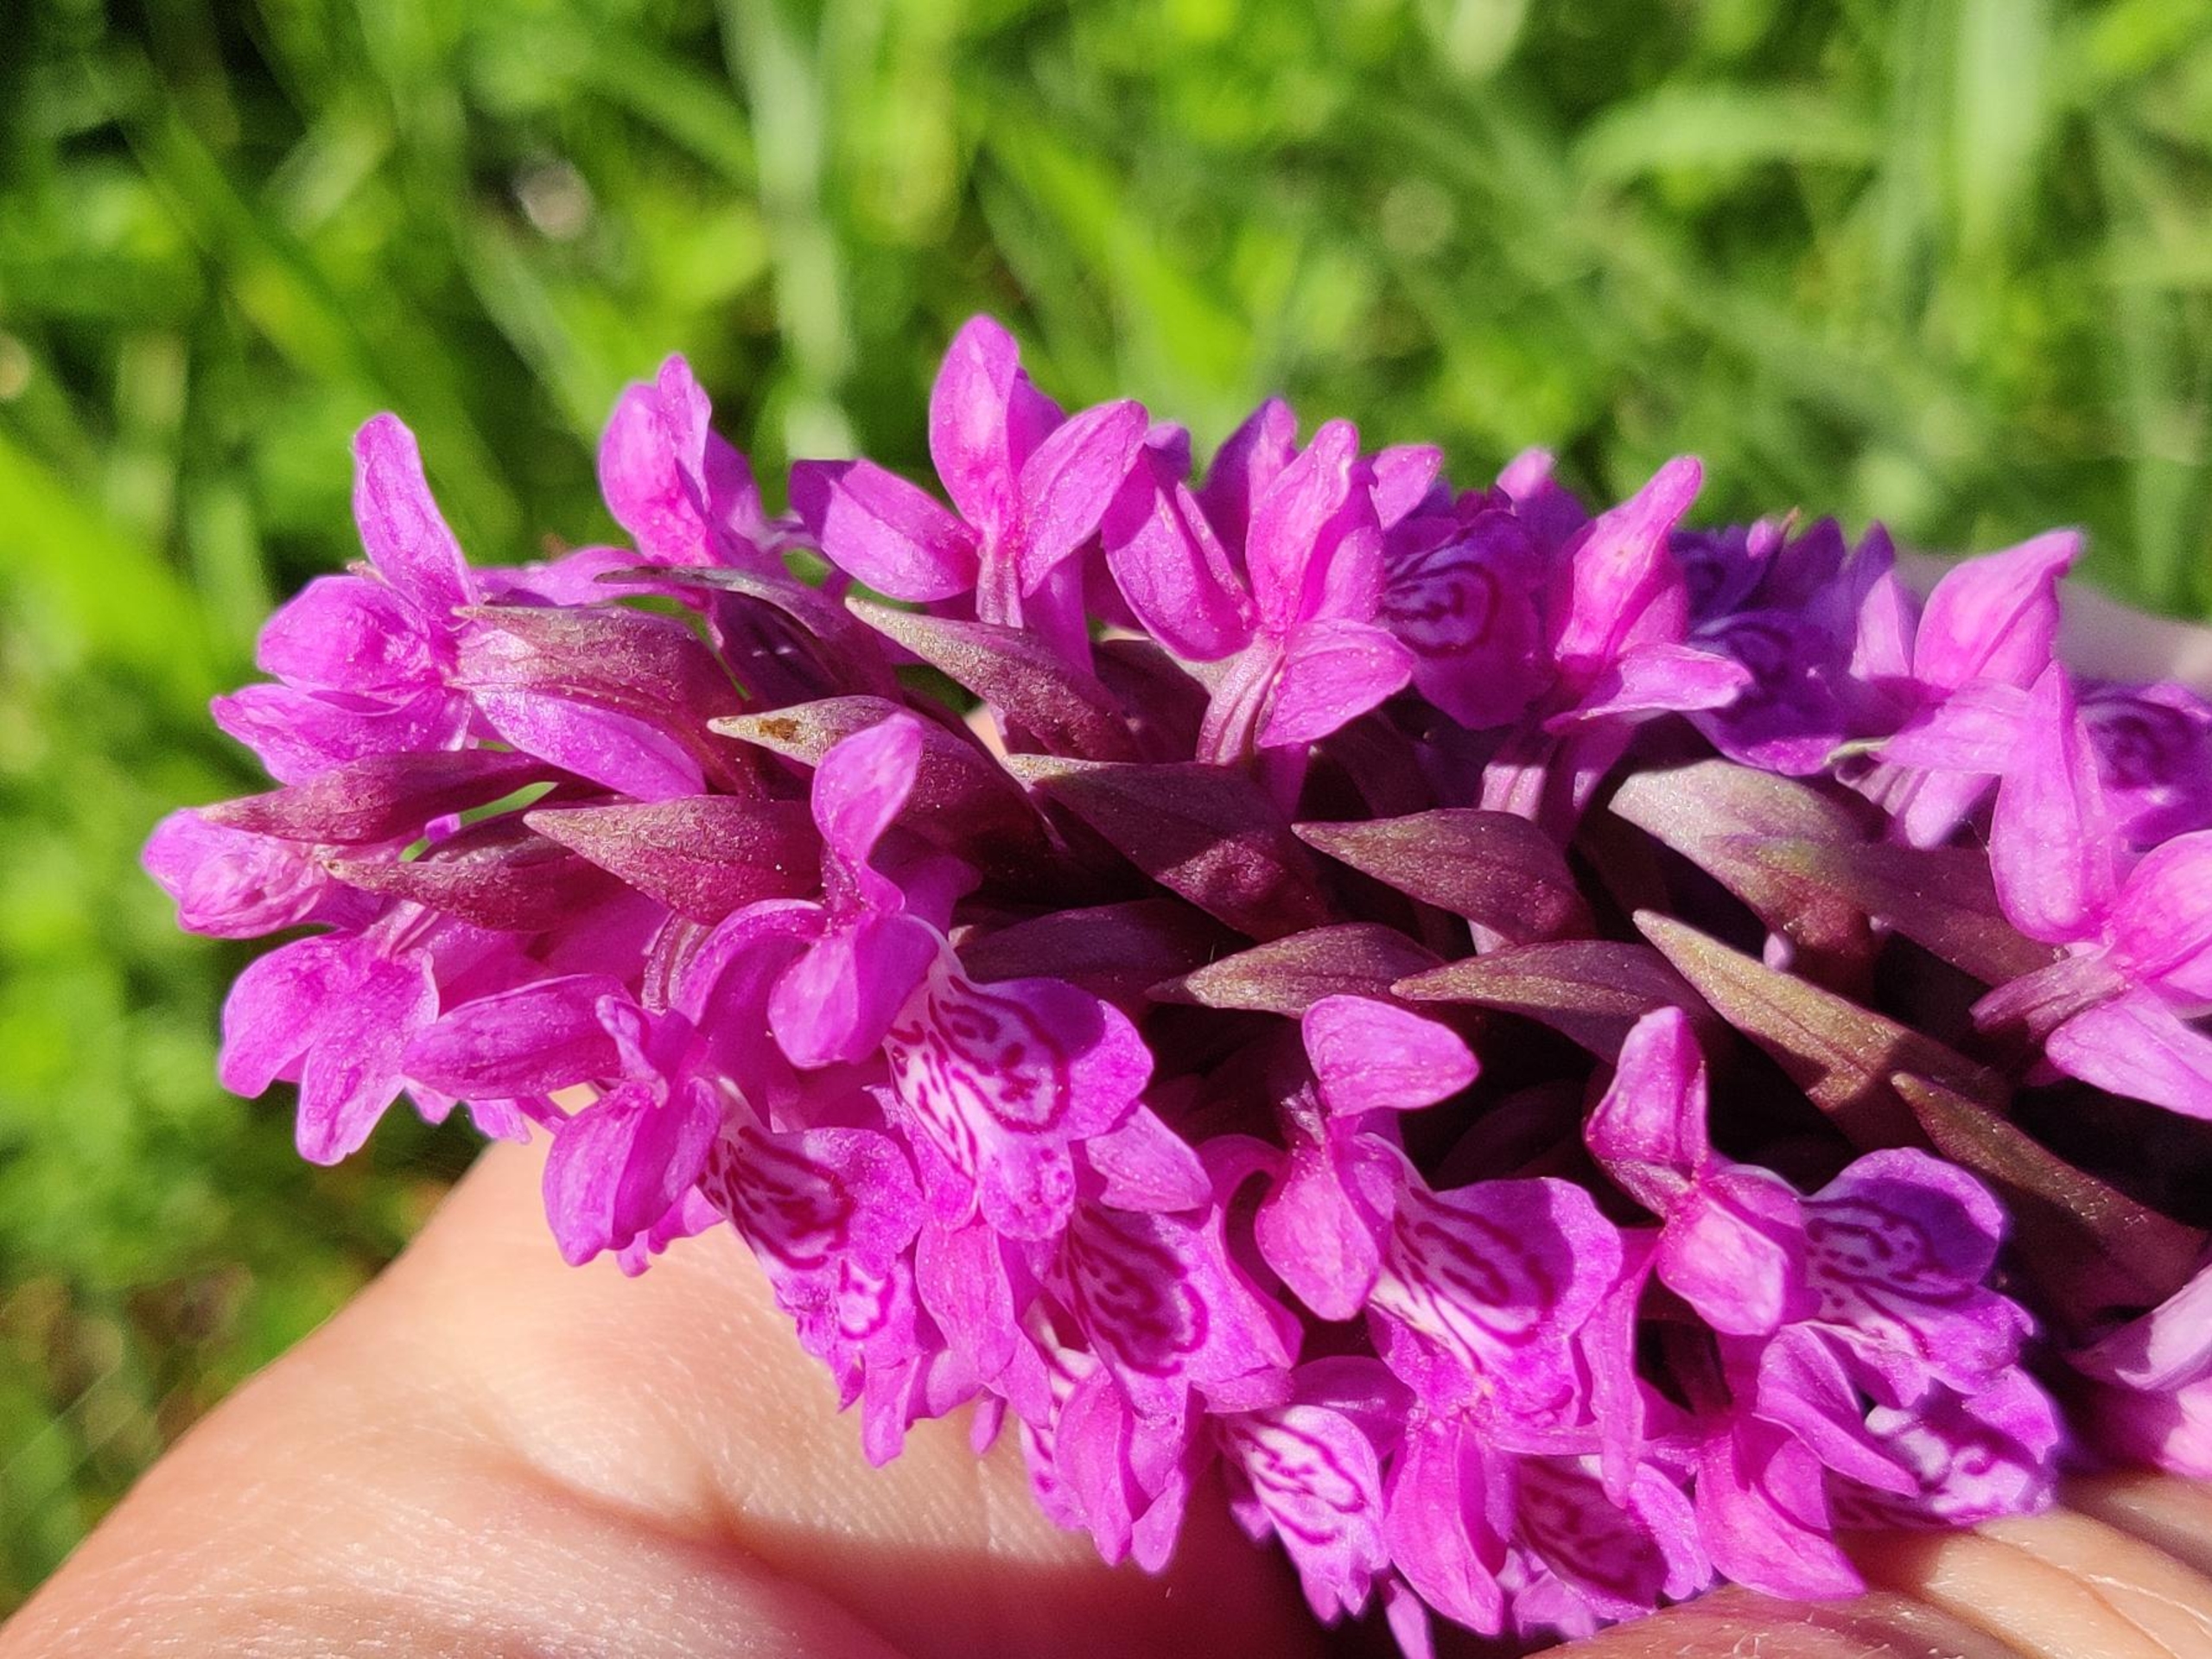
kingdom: Plantae
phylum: Tracheophyta
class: Liliopsida
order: Asparagales
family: Orchidaceae
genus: Dactylorhiza
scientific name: Dactylorhiza majalis
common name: Maj-gøgeurt
